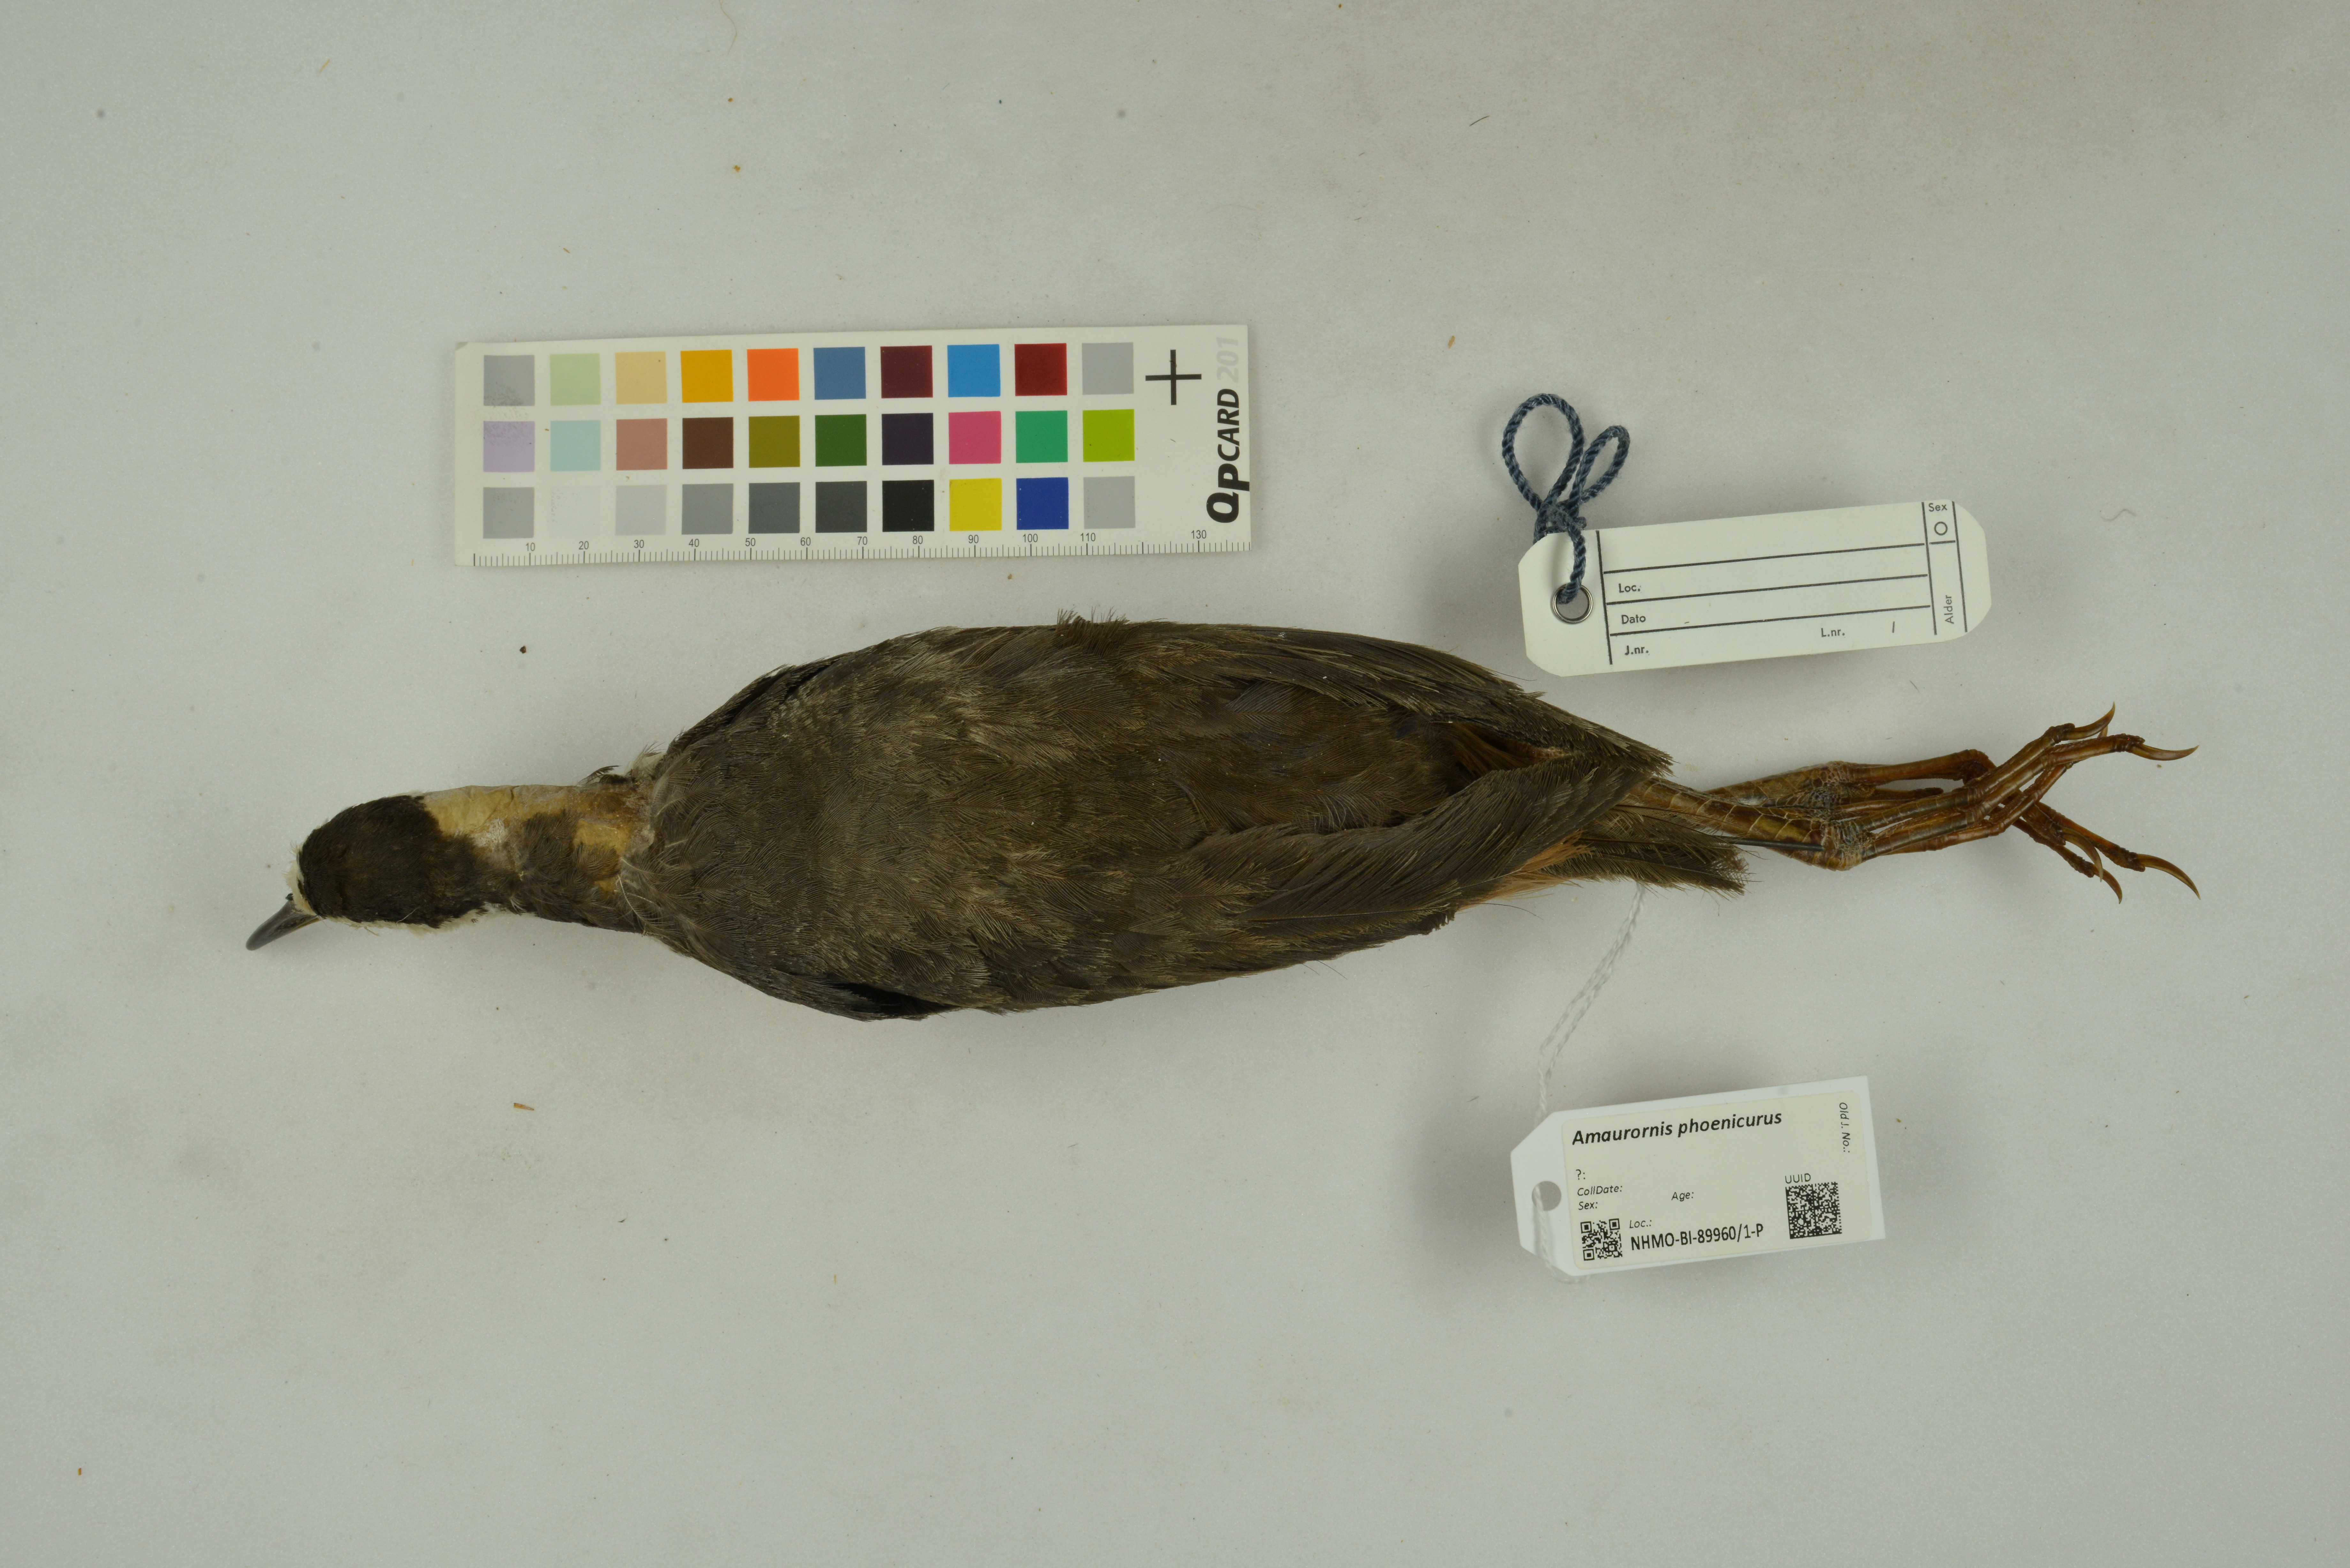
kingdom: Animalia
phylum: Chordata
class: Aves
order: Gruiformes
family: Rallidae
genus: Amaurornis
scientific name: Amaurornis phoenicurus
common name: White-breasted waterhen
